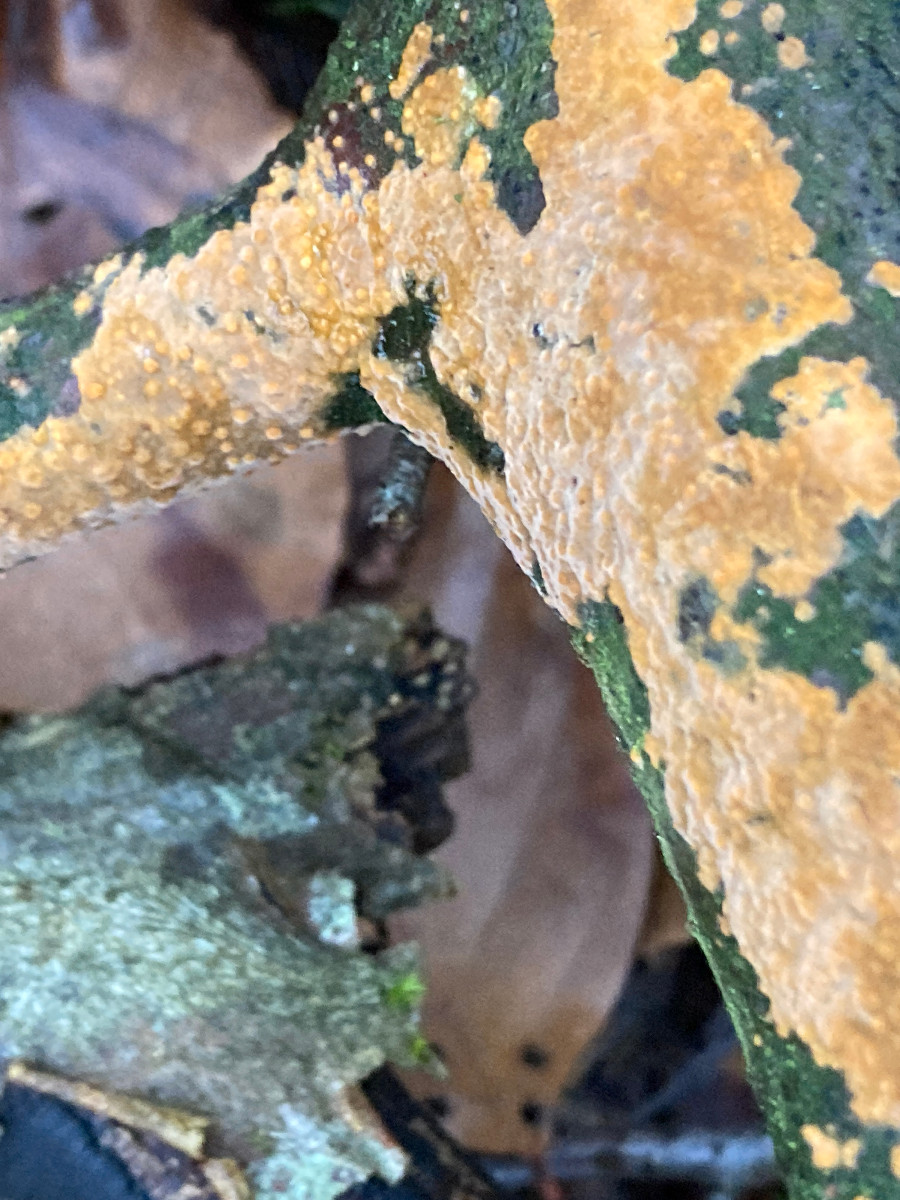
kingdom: Fungi
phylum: Basidiomycota
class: Agaricomycetes
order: Russulales
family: Peniophoraceae
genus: Peniophora
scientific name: Peniophora incarnata
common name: laksefarvet voksskind
